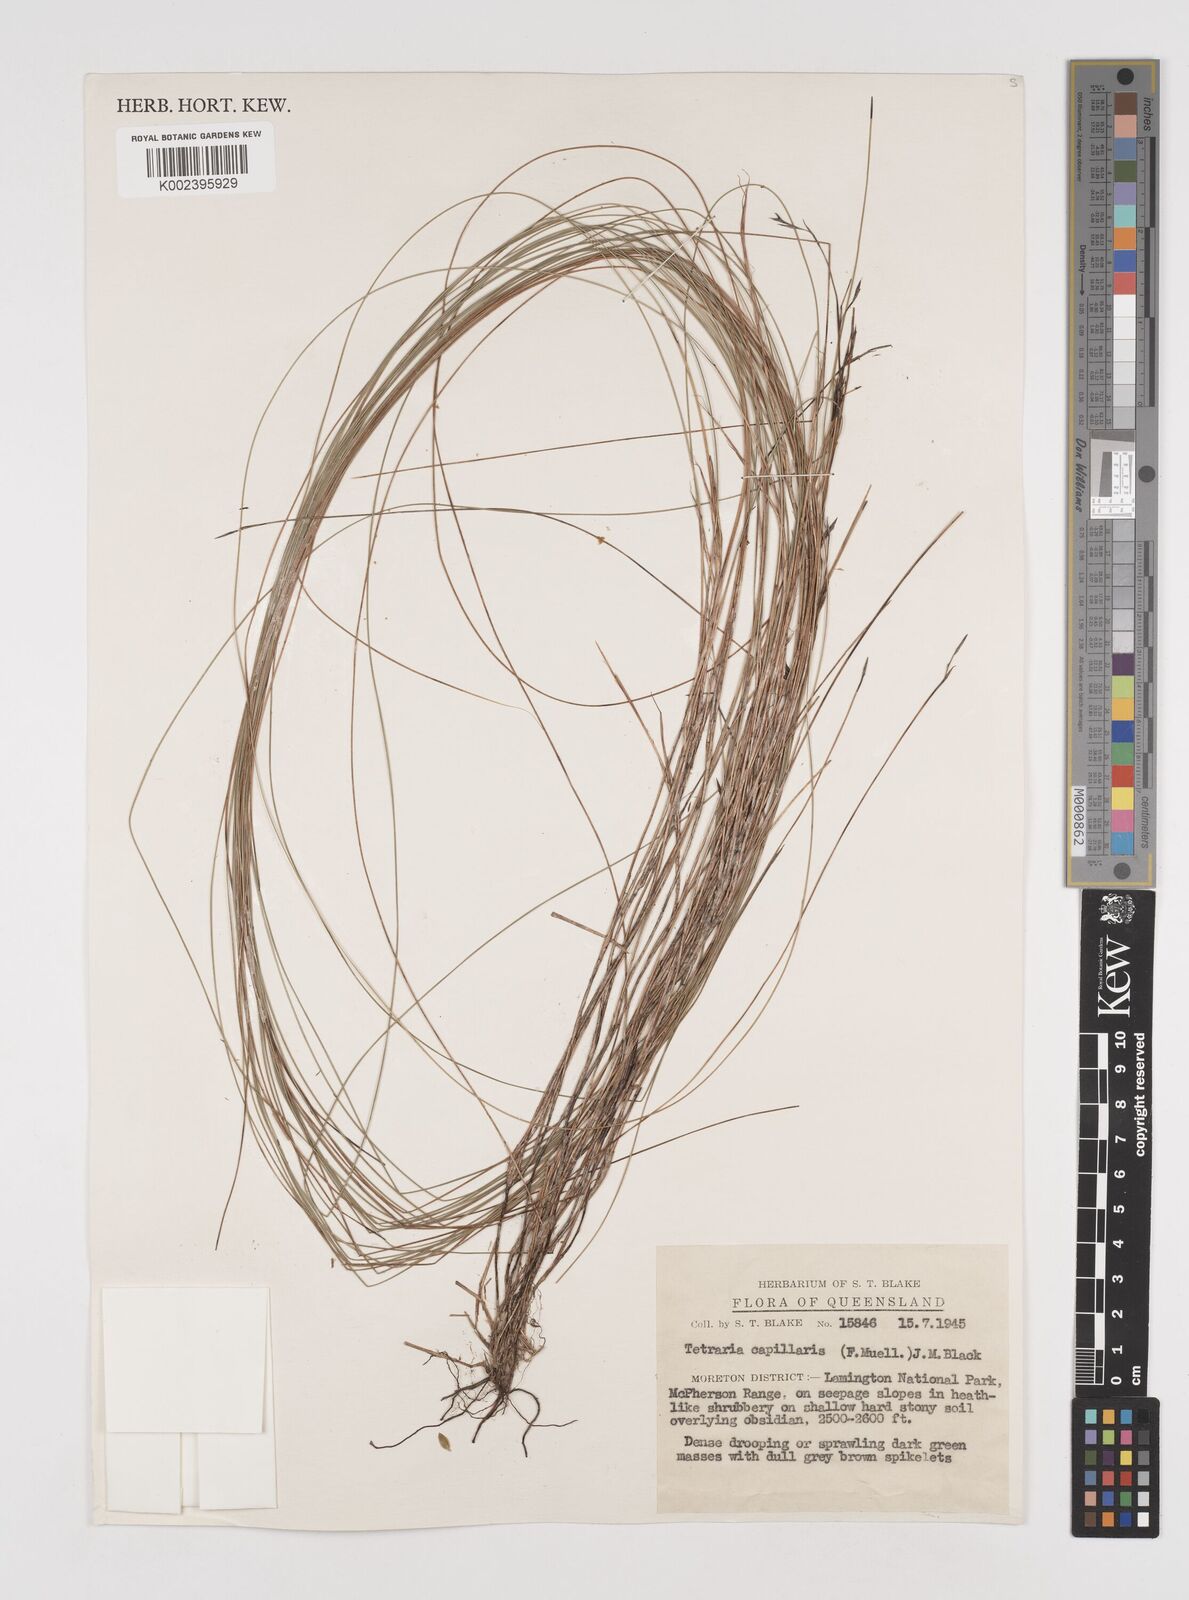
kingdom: Plantae
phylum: Tracheophyta
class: Liliopsida
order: Poales
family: Cyperaceae
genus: Tetraria
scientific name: Tetraria capillaris
